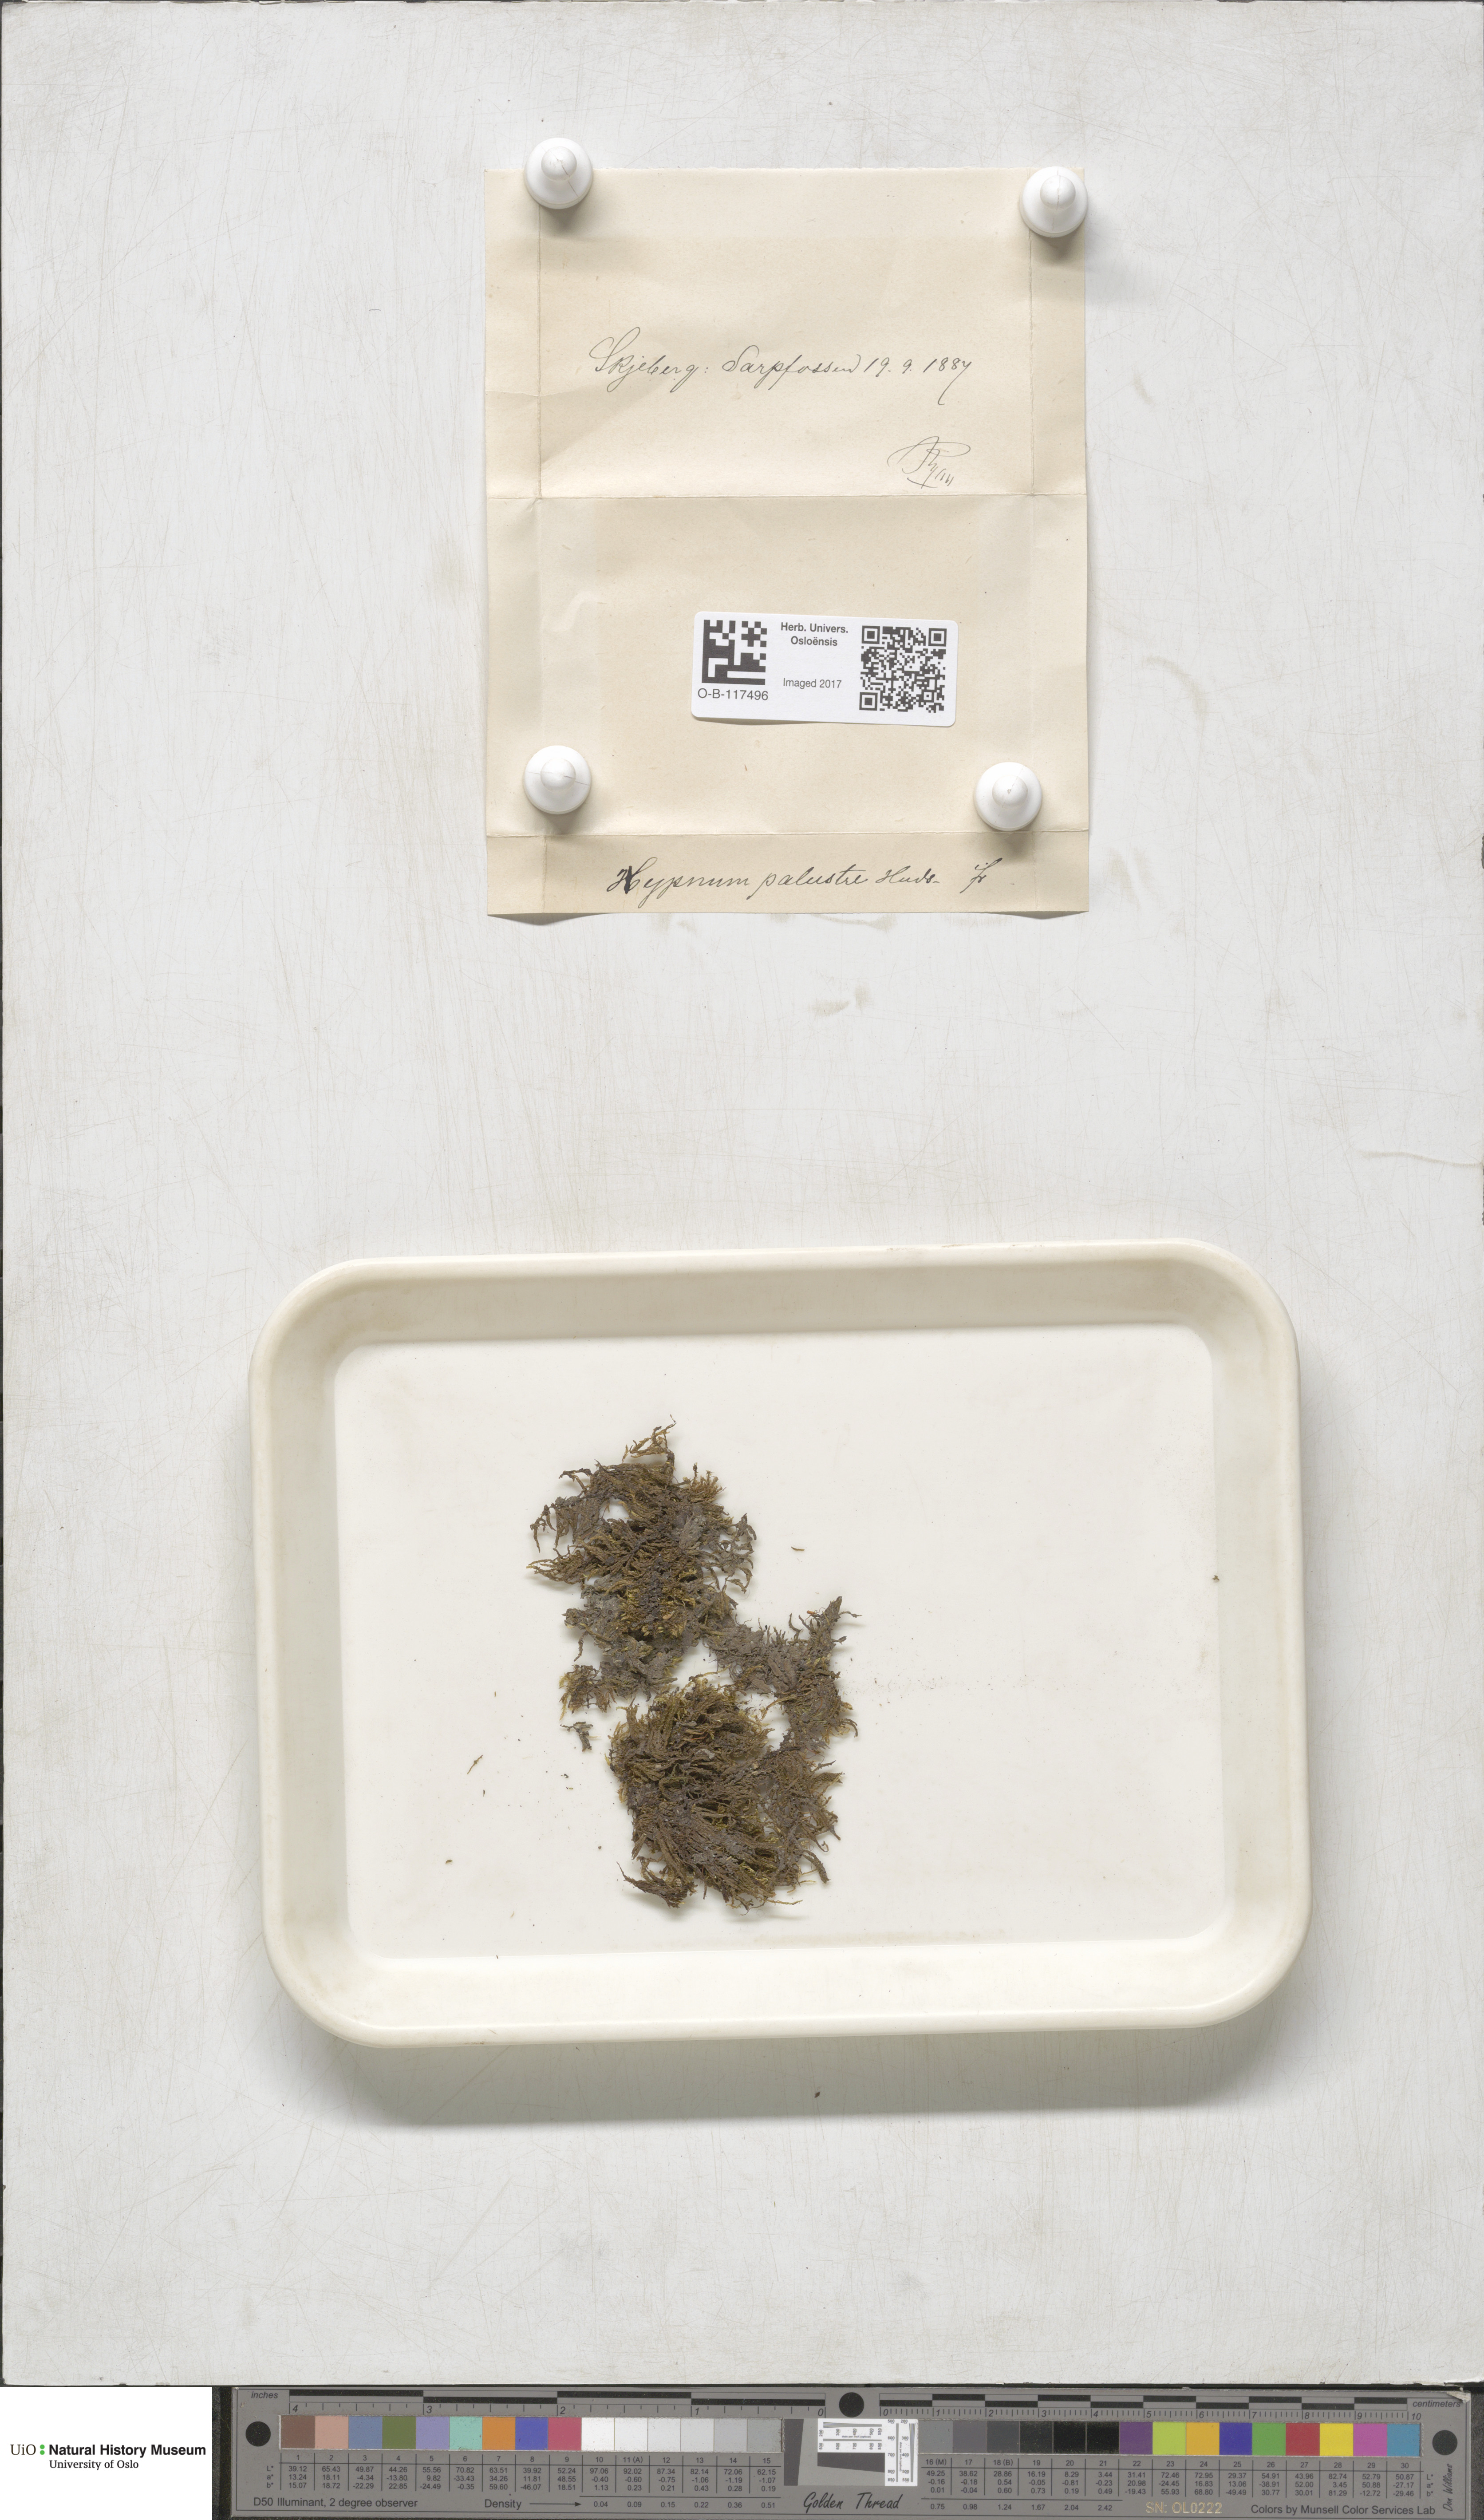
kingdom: Plantae
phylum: Bryophyta
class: Bryopsida
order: Hypnales
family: Amblystegiaceae
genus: Hygrohypnum
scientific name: Hygrohypnum luridum
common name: Drab brook moss
